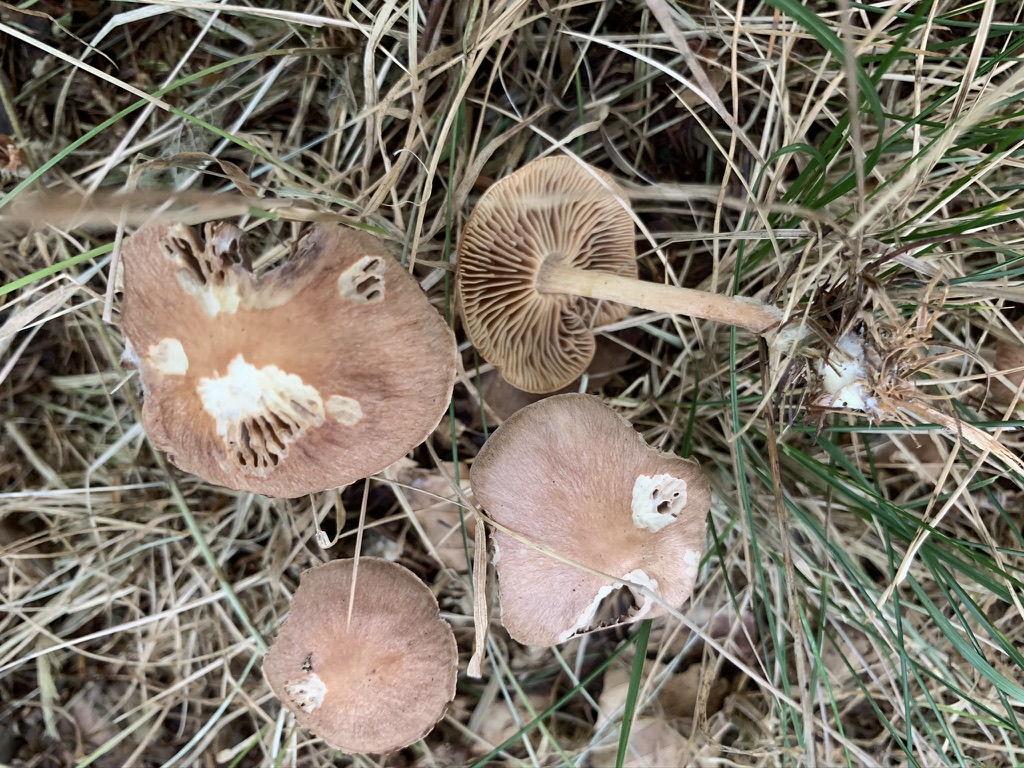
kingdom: Fungi
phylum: Basidiomycota
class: Agaricomycetes
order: Agaricales
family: Omphalotaceae
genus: Collybiopsis
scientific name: Collybiopsis peronata
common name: bestøvlet fladhat
